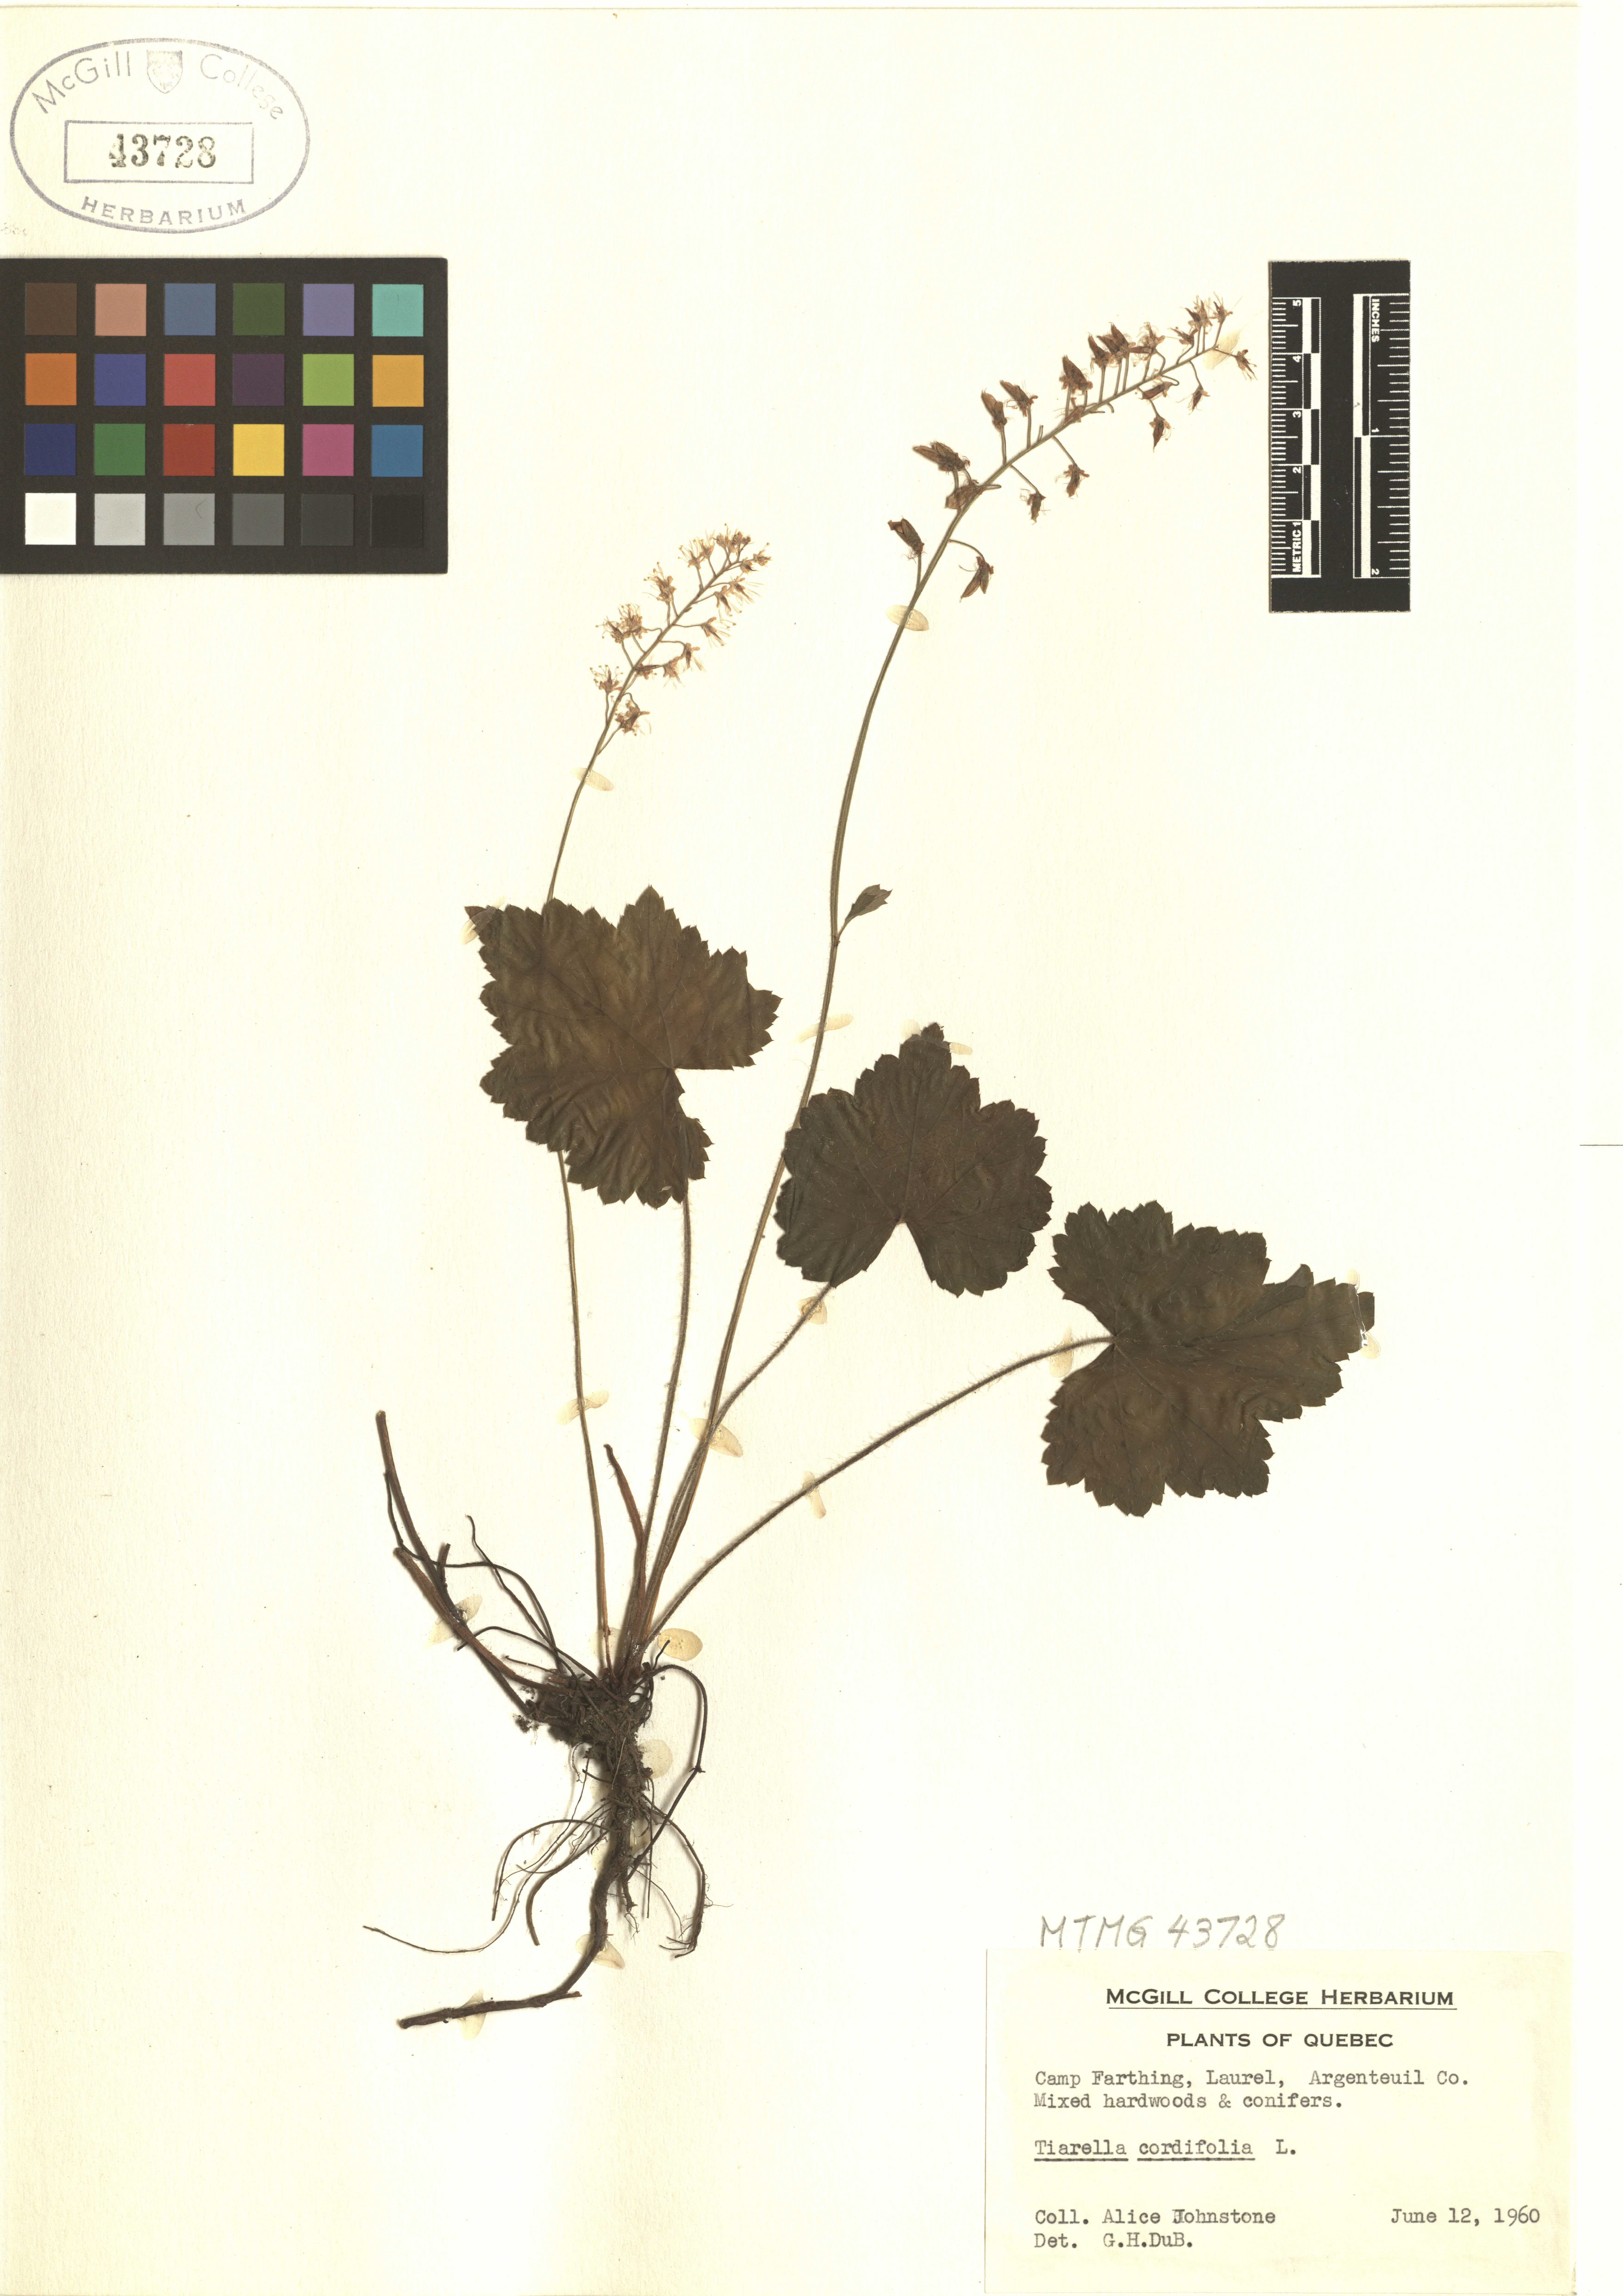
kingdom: Plantae
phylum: Tracheophyta
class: Magnoliopsida
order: Saxifragales
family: Saxifragaceae
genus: Tiarella
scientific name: Tiarella cordifolia
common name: Foamflower
